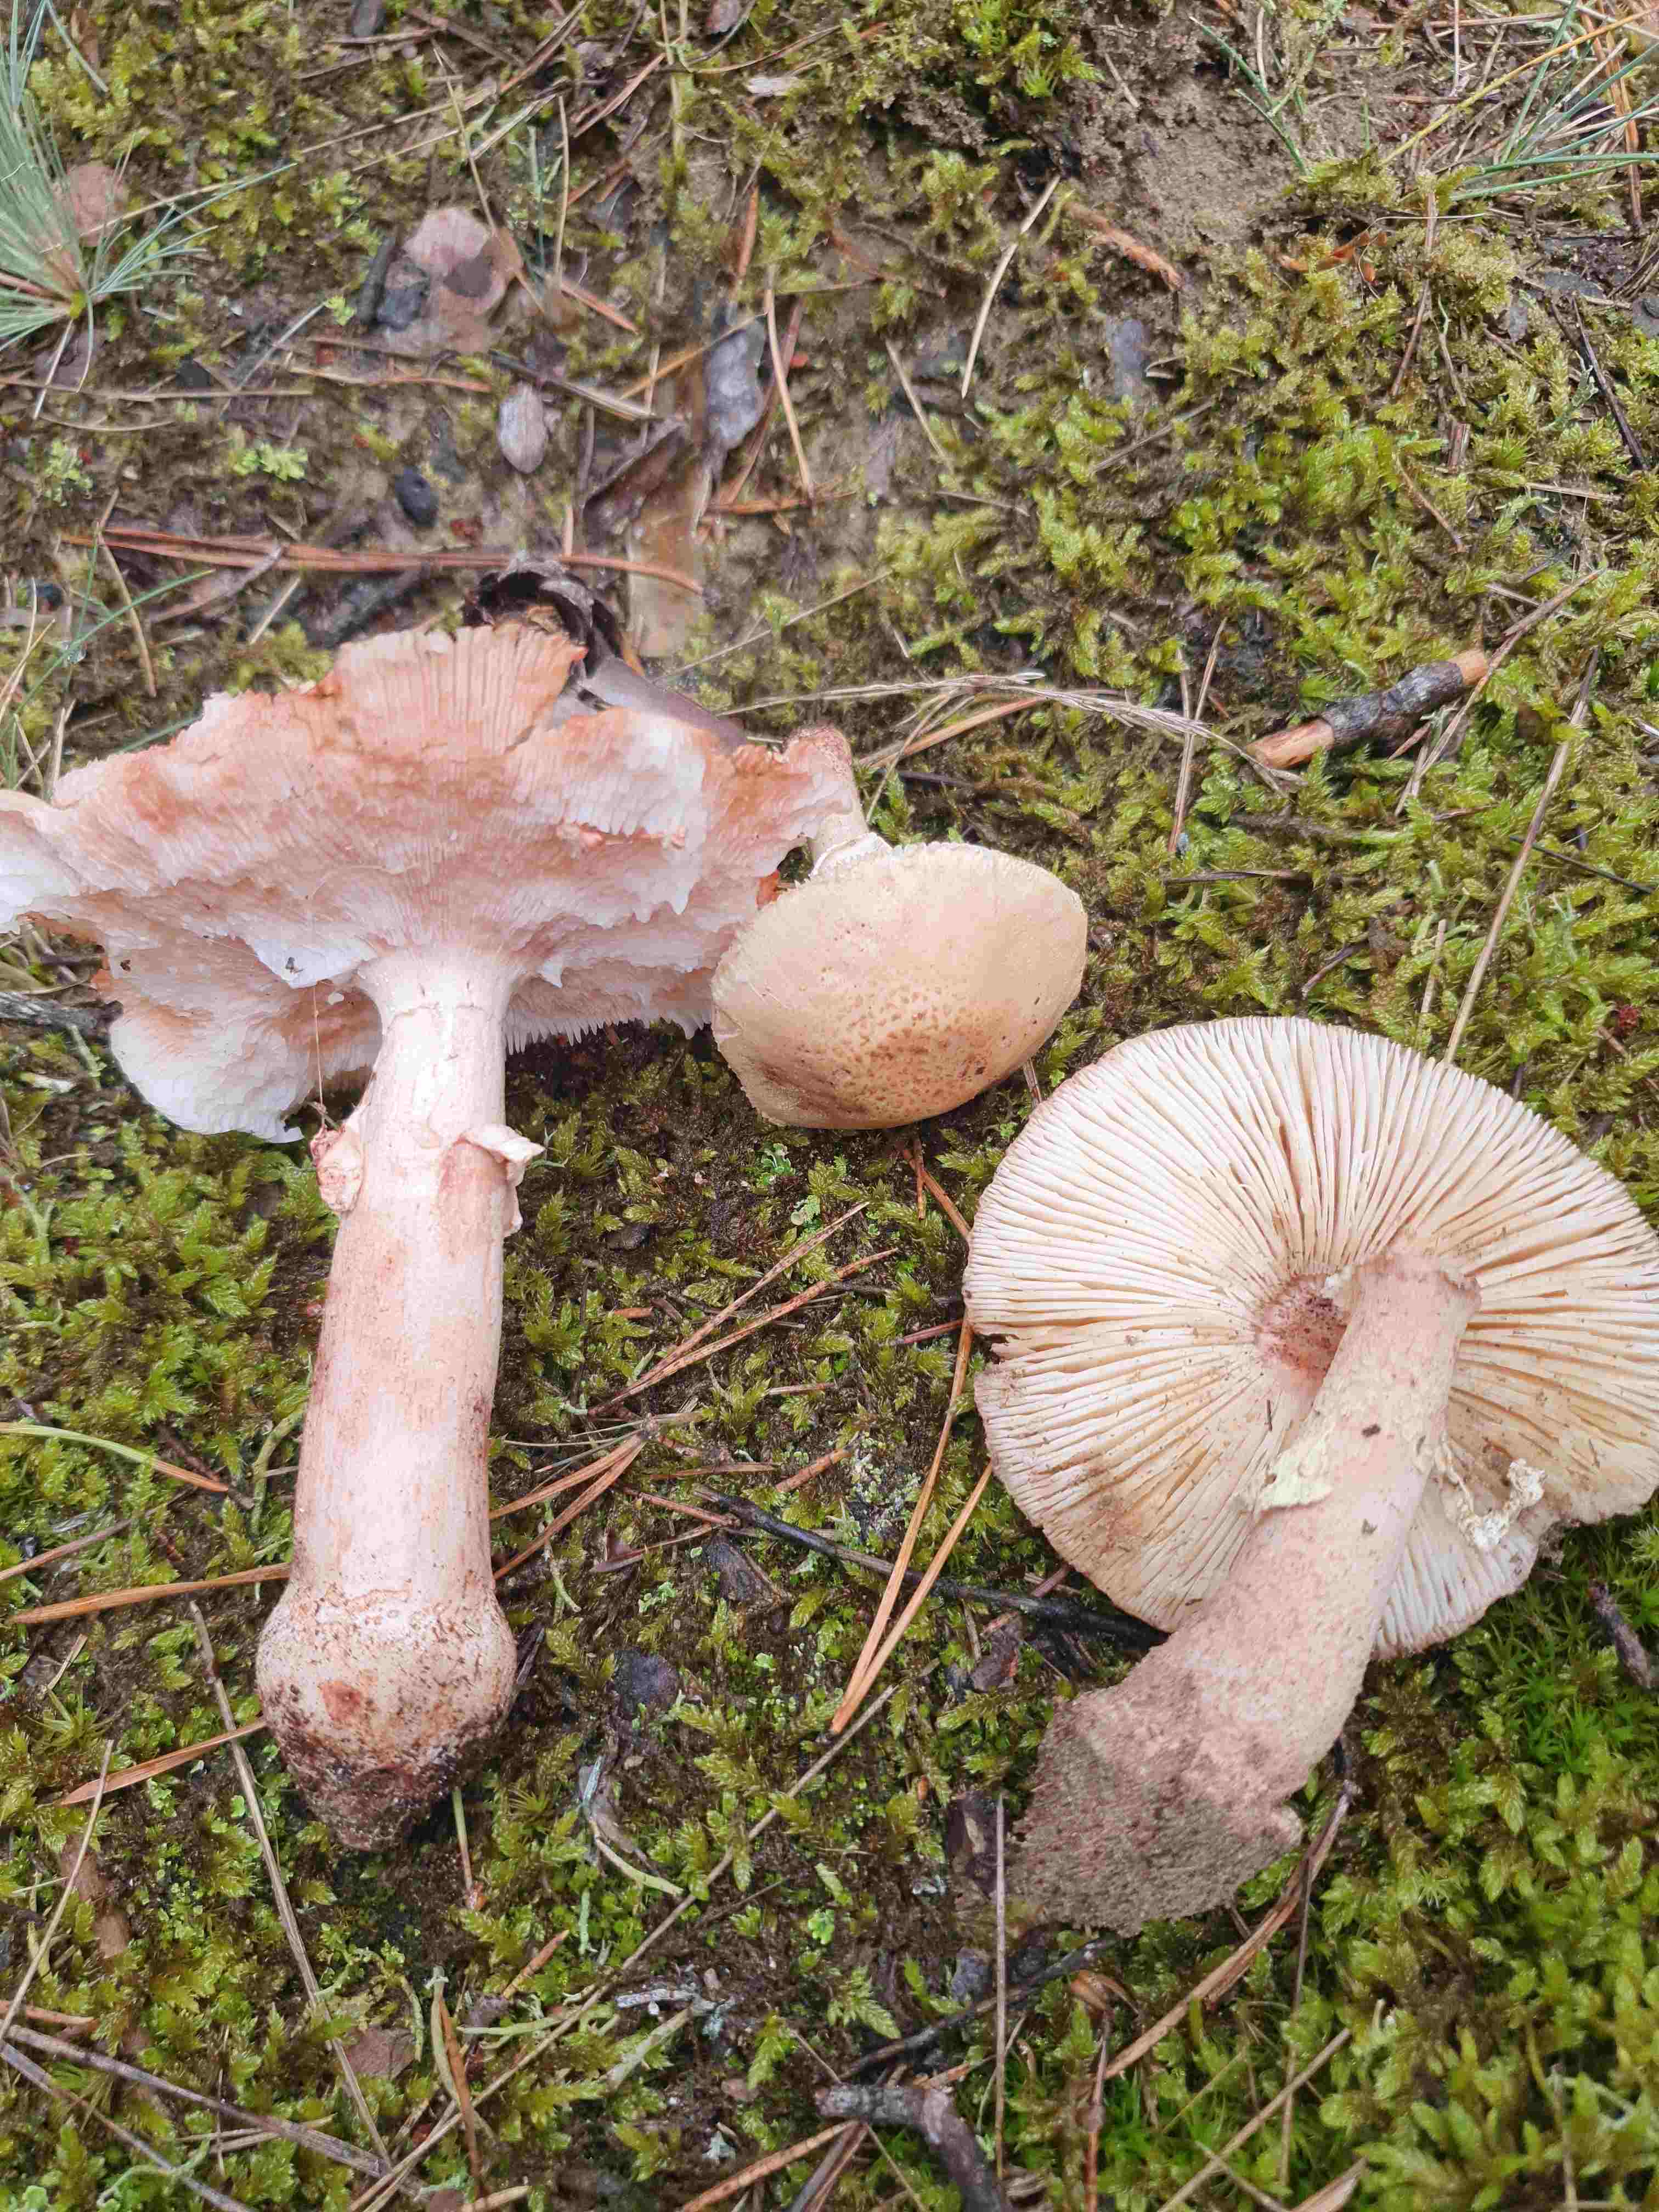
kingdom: Fungi
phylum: Basidiomycota
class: Agaricomycetes
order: Agaricales
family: Amanitaceae
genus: Amanita
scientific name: Amanita rubescens
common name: rødmende fluesvamp
